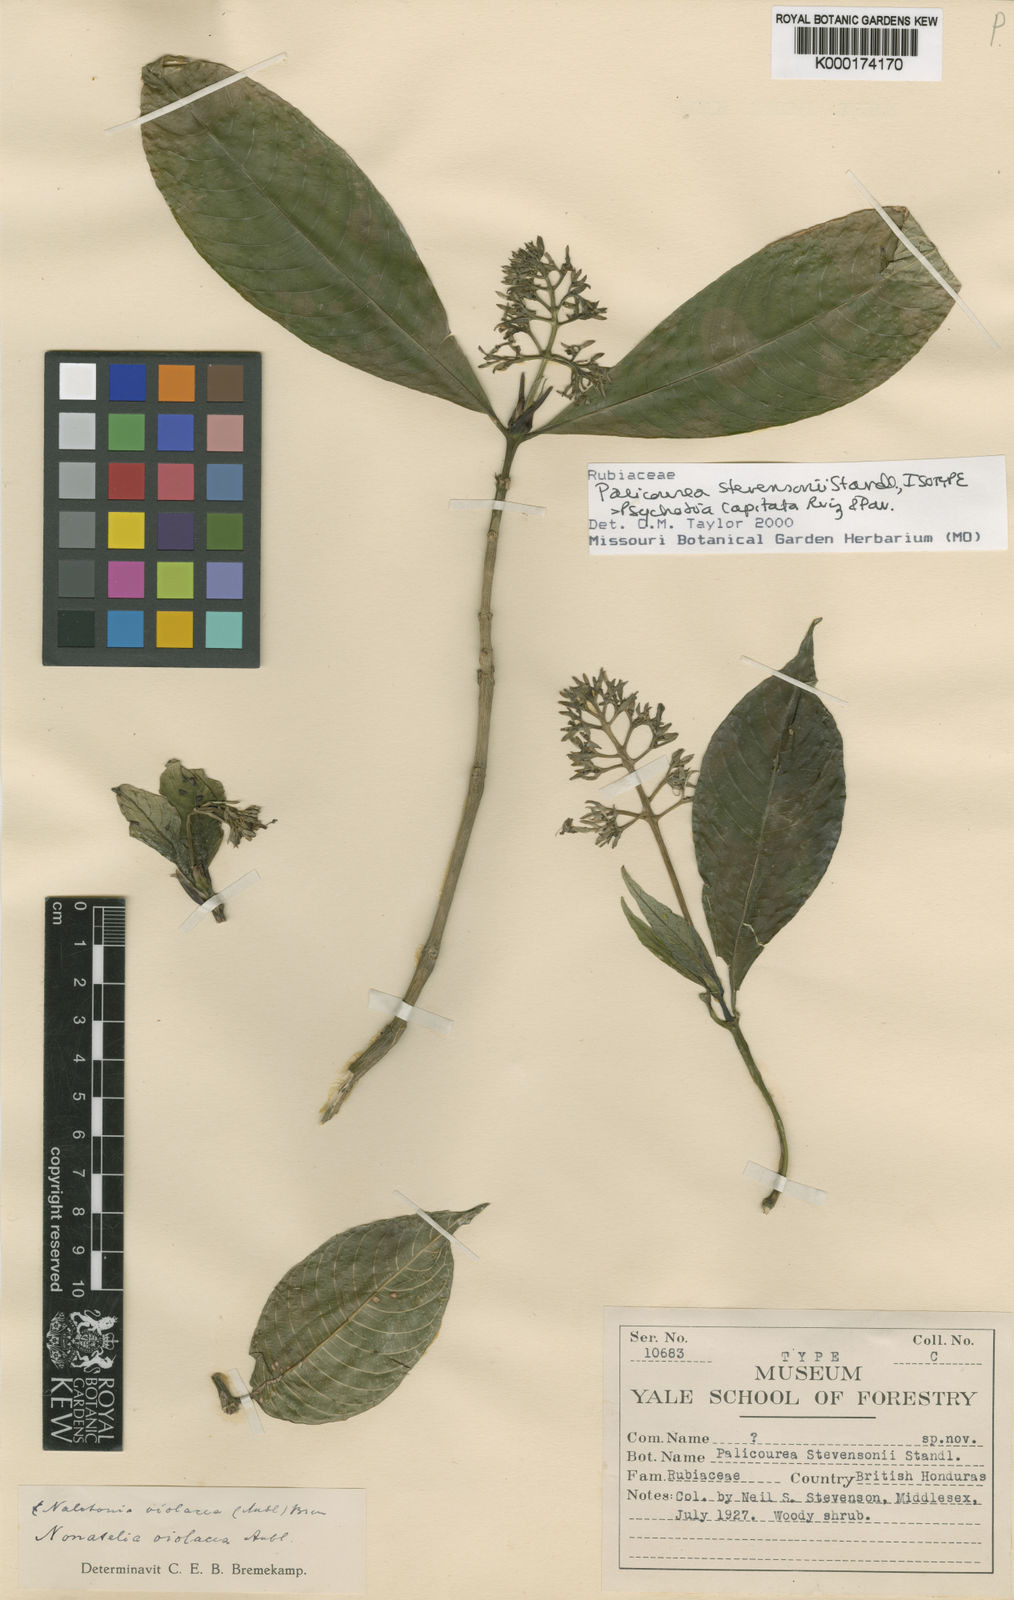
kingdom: Plantae
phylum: Tracheophyta
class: Magnoliopsida
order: Gentianales
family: Rubiaceae
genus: Palicourea
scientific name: Palicourea violacea
